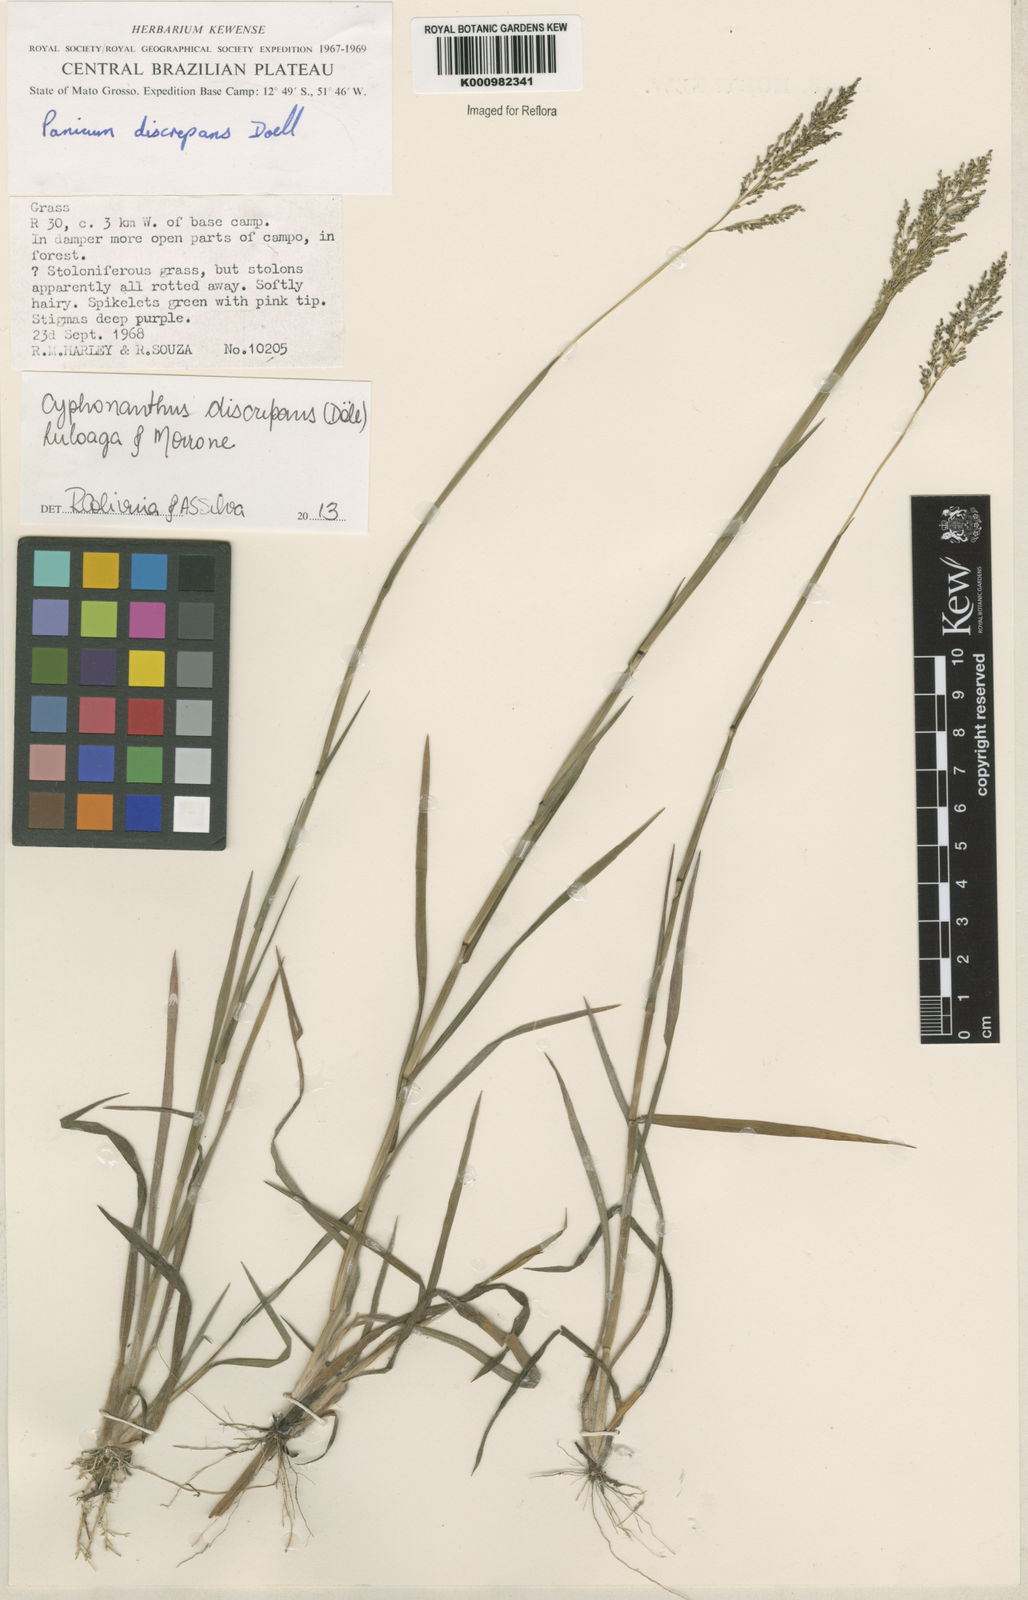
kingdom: Plantae
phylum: Tracheophyta
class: Liliopsida
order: Poales
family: Poaceae
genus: Panicum
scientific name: Panicum
